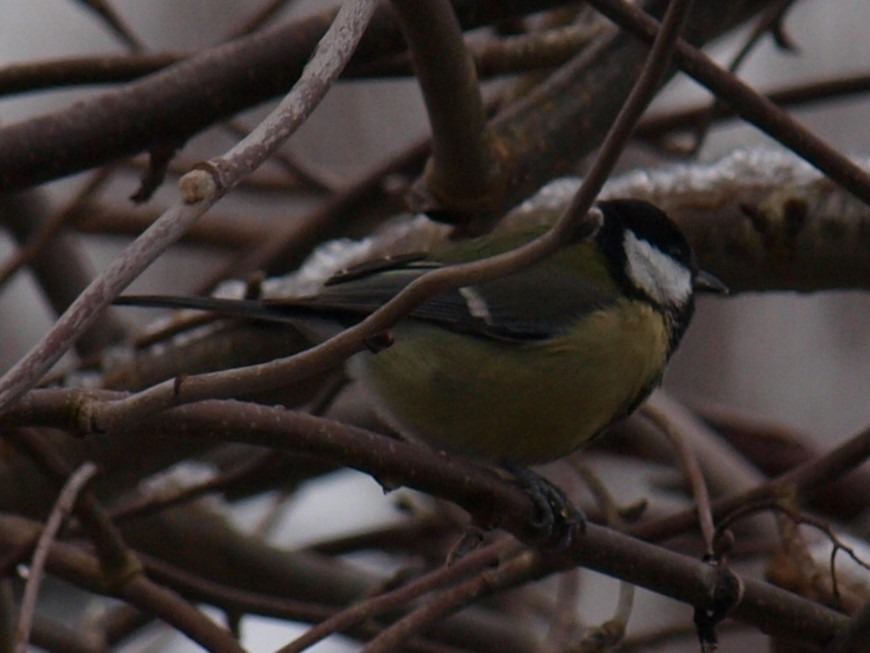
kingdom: Animalia
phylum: Chordata
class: Aves
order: Passeriformes
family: Paridae
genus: Parus
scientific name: Parus major
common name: Musvit
